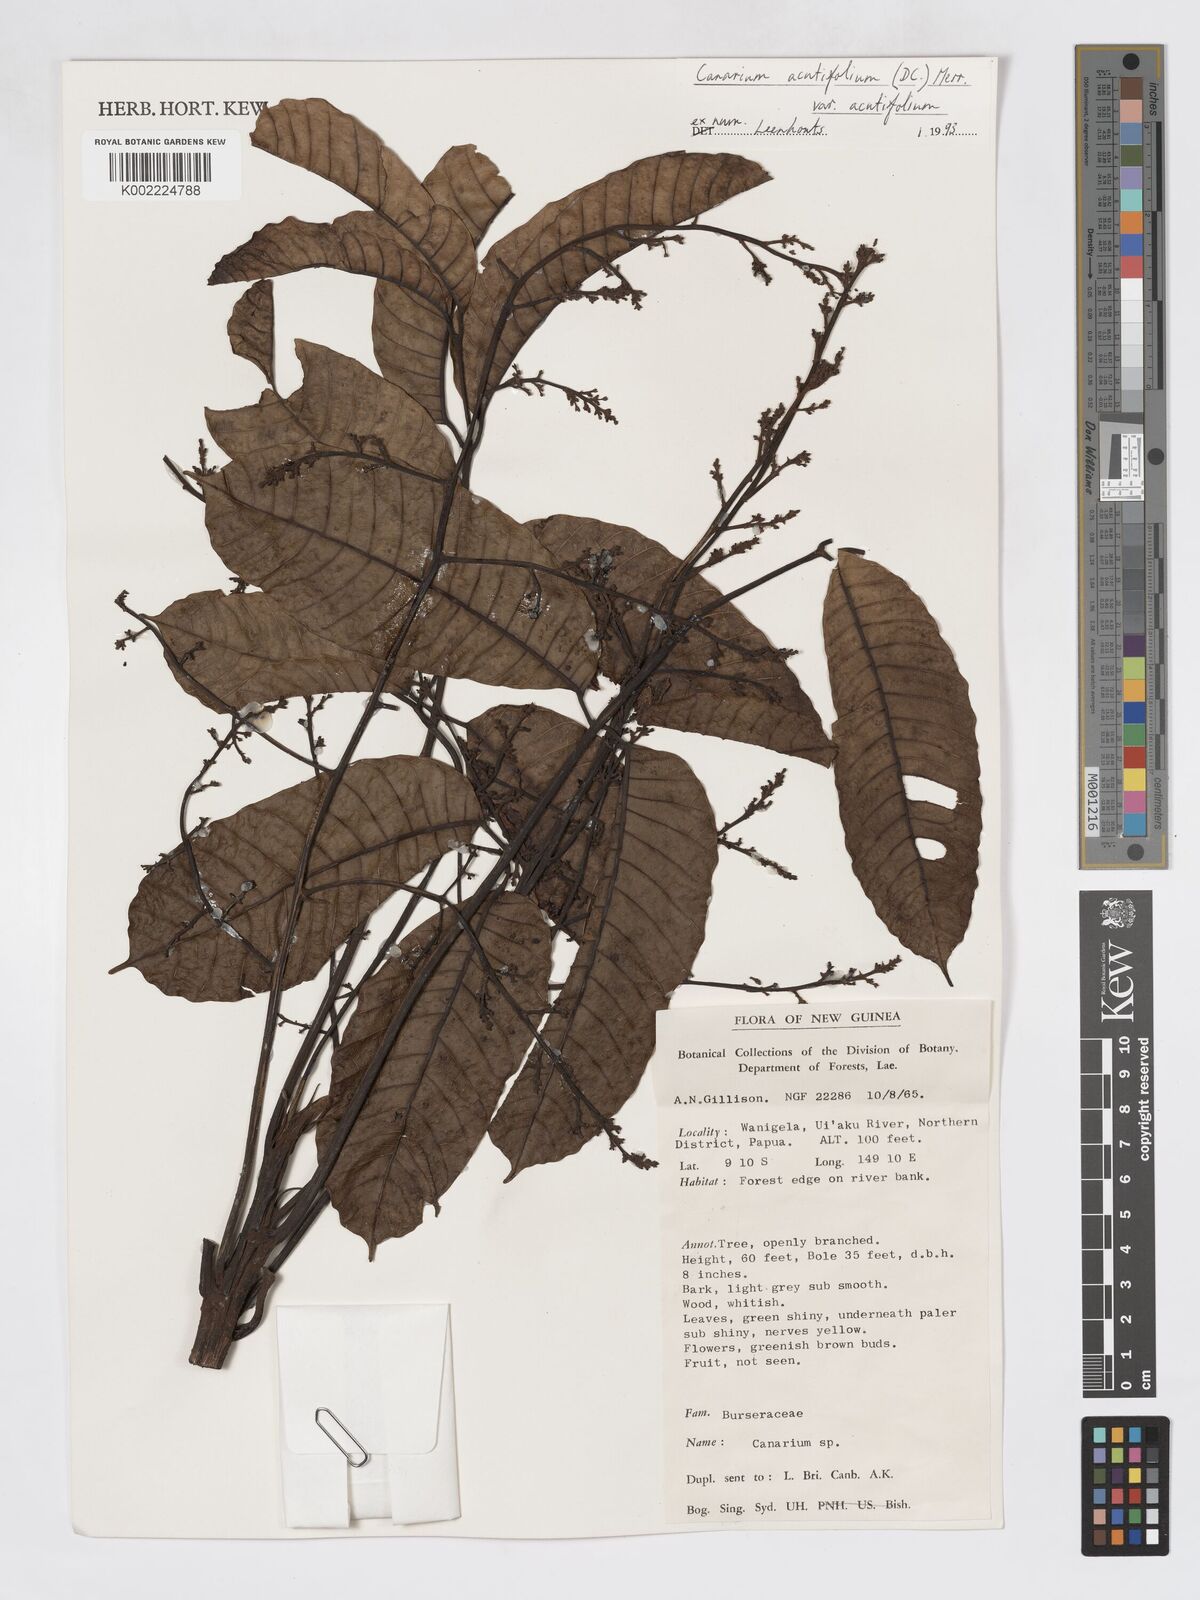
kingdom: Plantae
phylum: Tracheophyta
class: Magnoliopsida
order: Sapindales
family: Burseraceae
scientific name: Burseraceae
